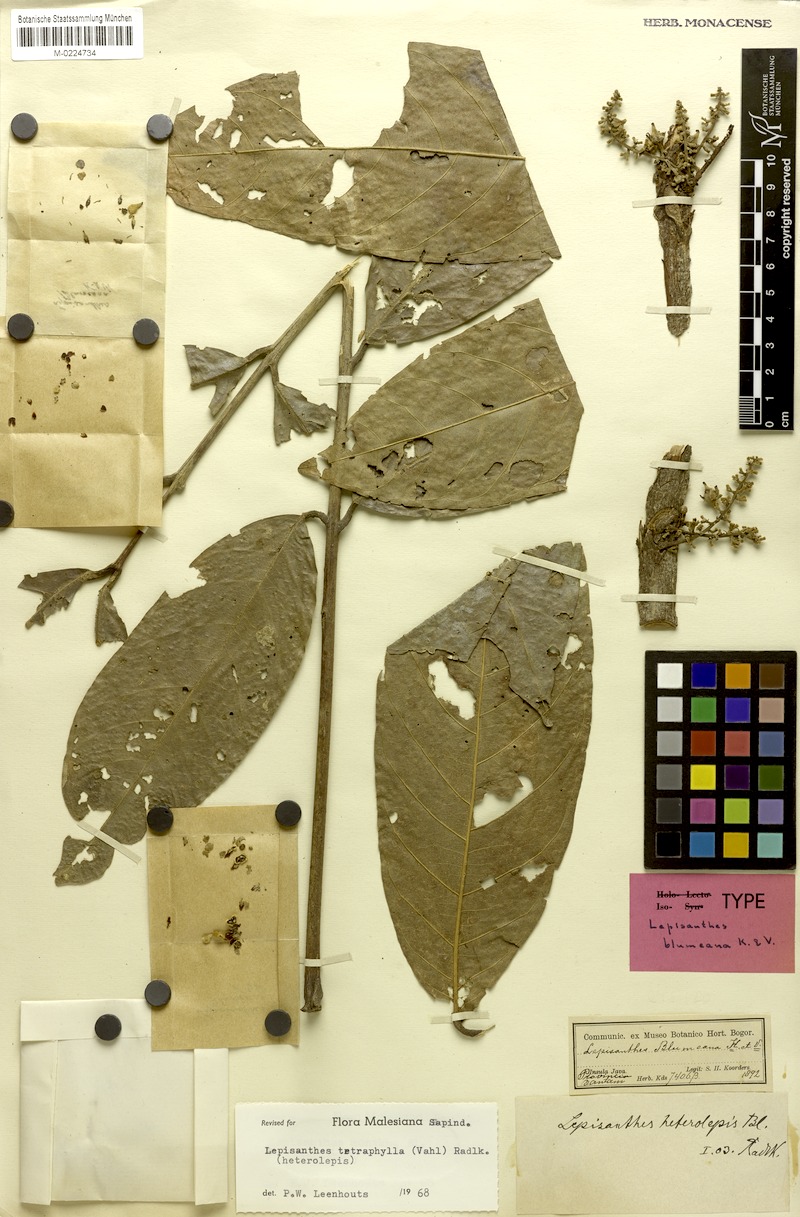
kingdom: Plantae
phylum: Tracheophyta
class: Magnoliopsida
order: Sapindales
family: Sapindaceae
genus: Lepisanthes
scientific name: Lepisanthes heterolepis
